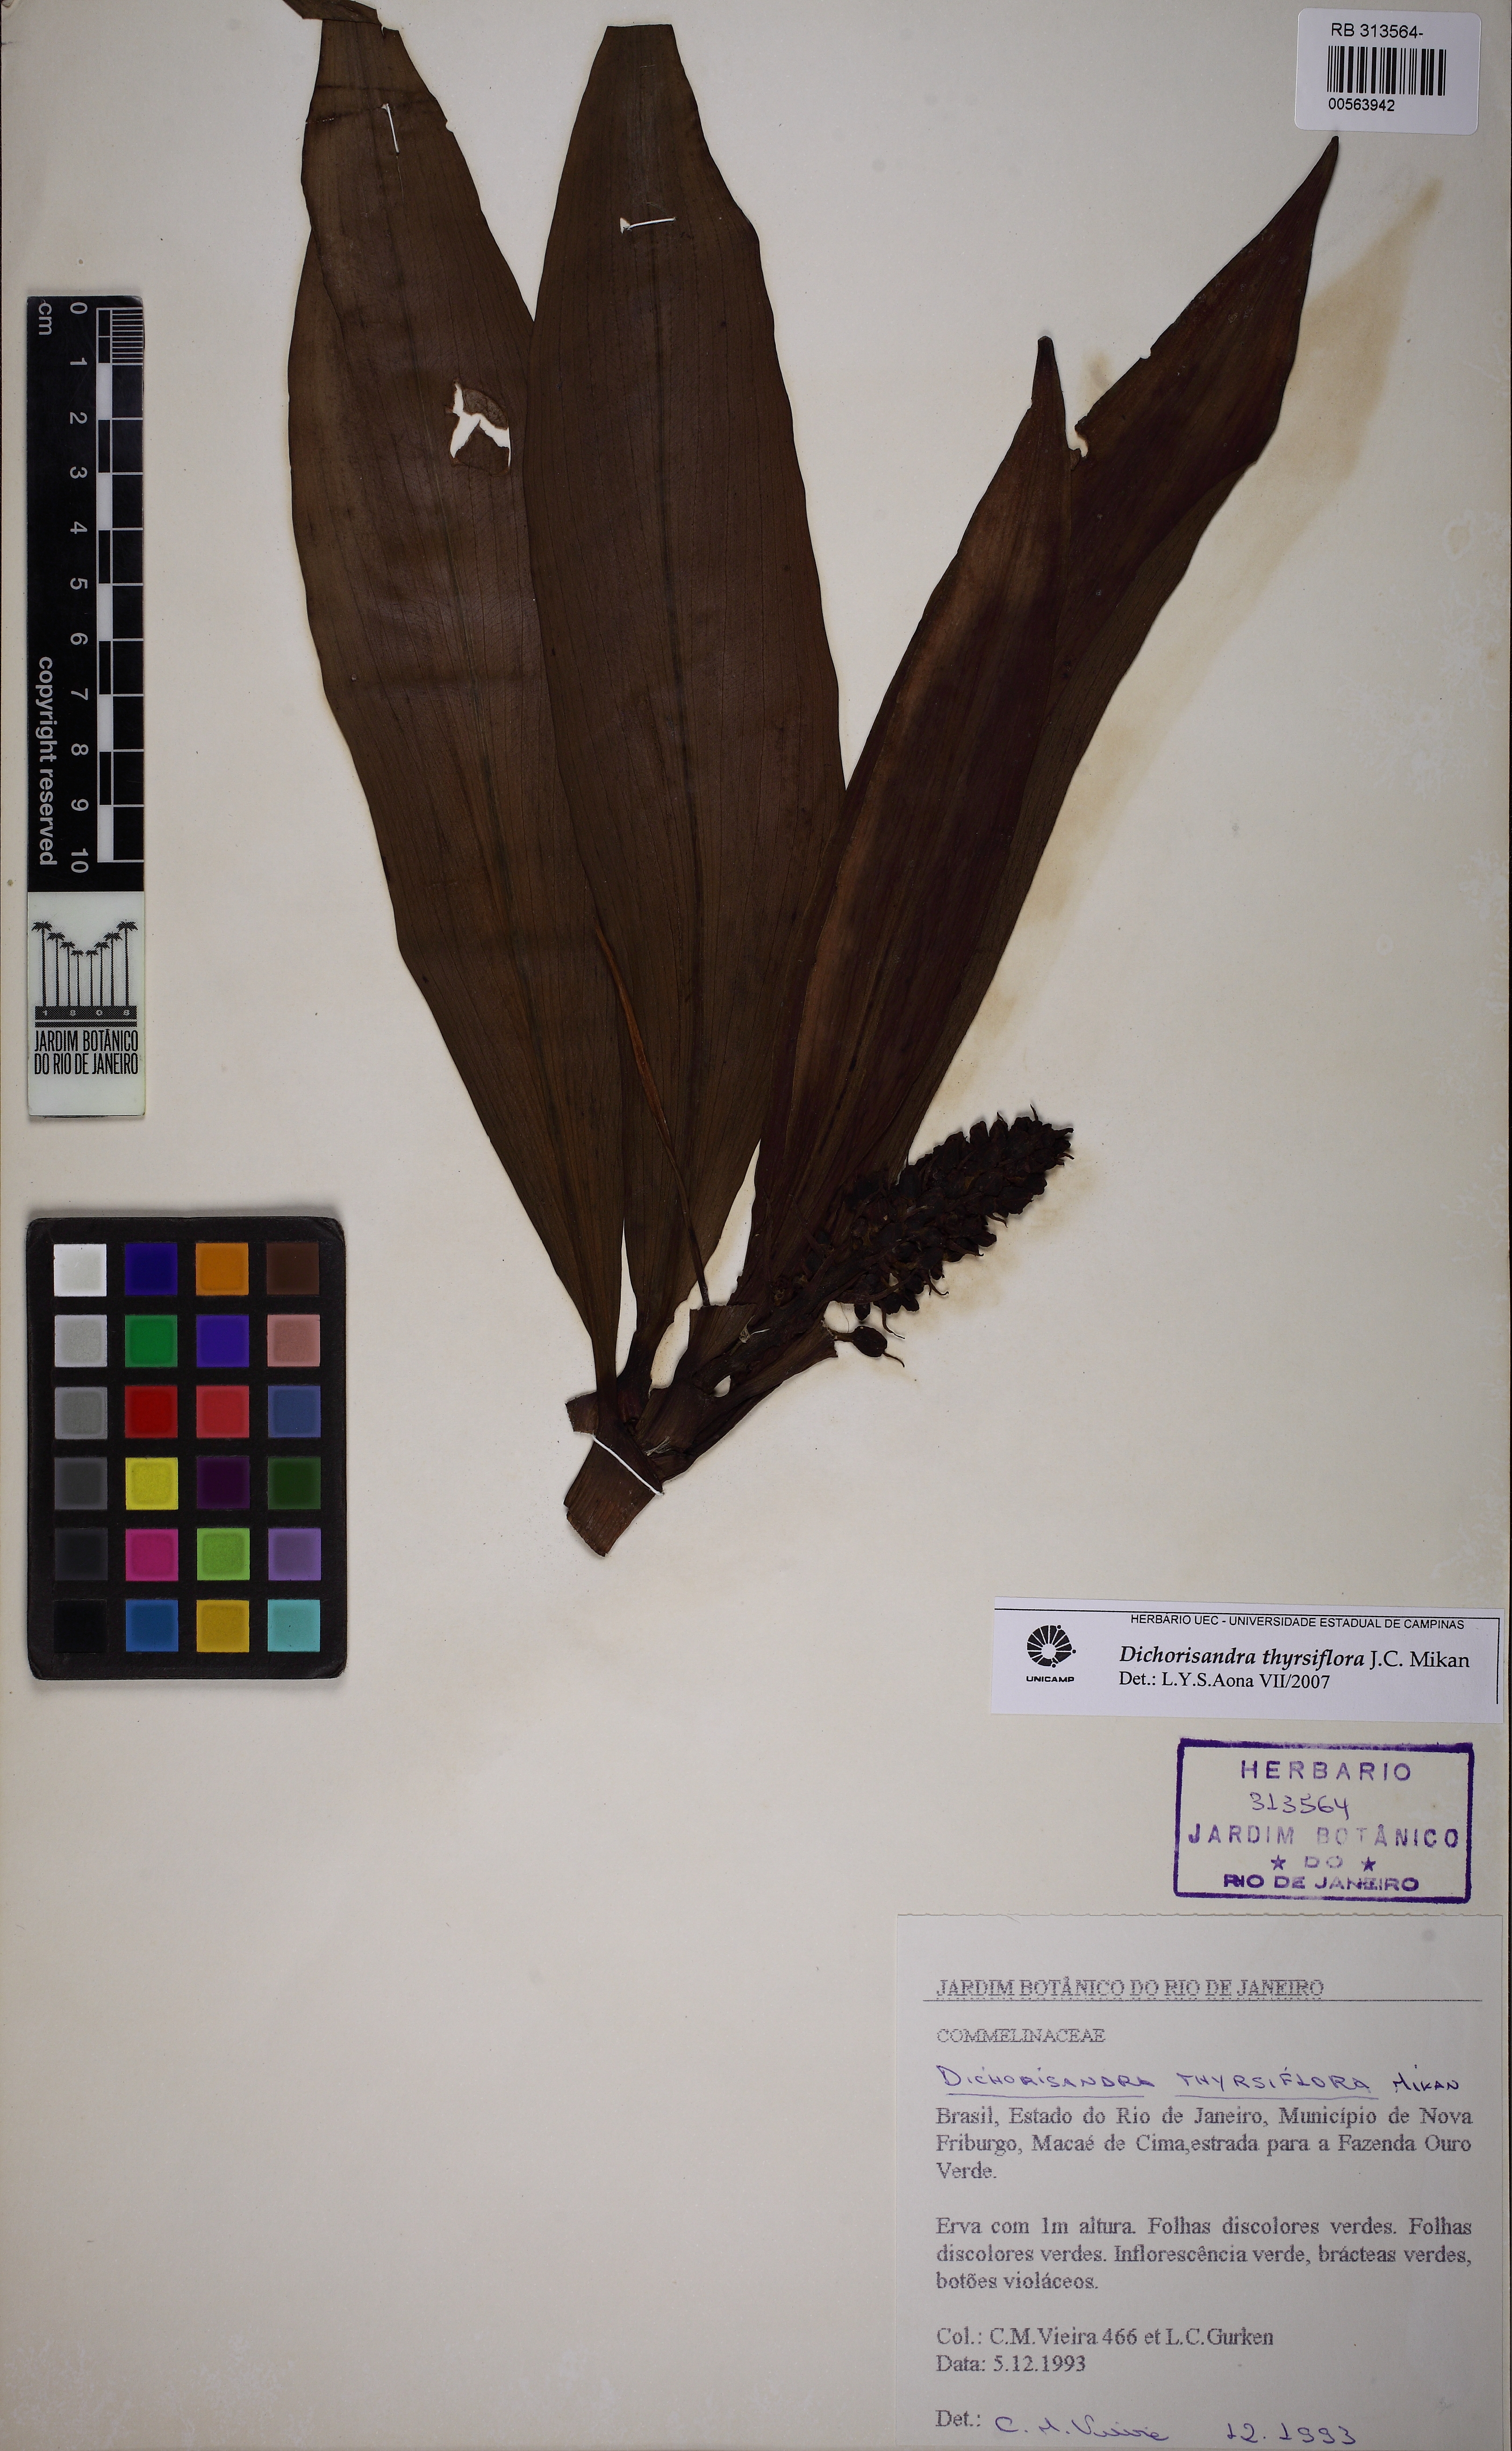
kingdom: Plantae
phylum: Tracheophyta
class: Liliopsida
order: Commelinales
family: Commelinaceae
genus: Dichorisandra
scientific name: Dichorisandra thyrsiflora
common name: Blue-ginger
